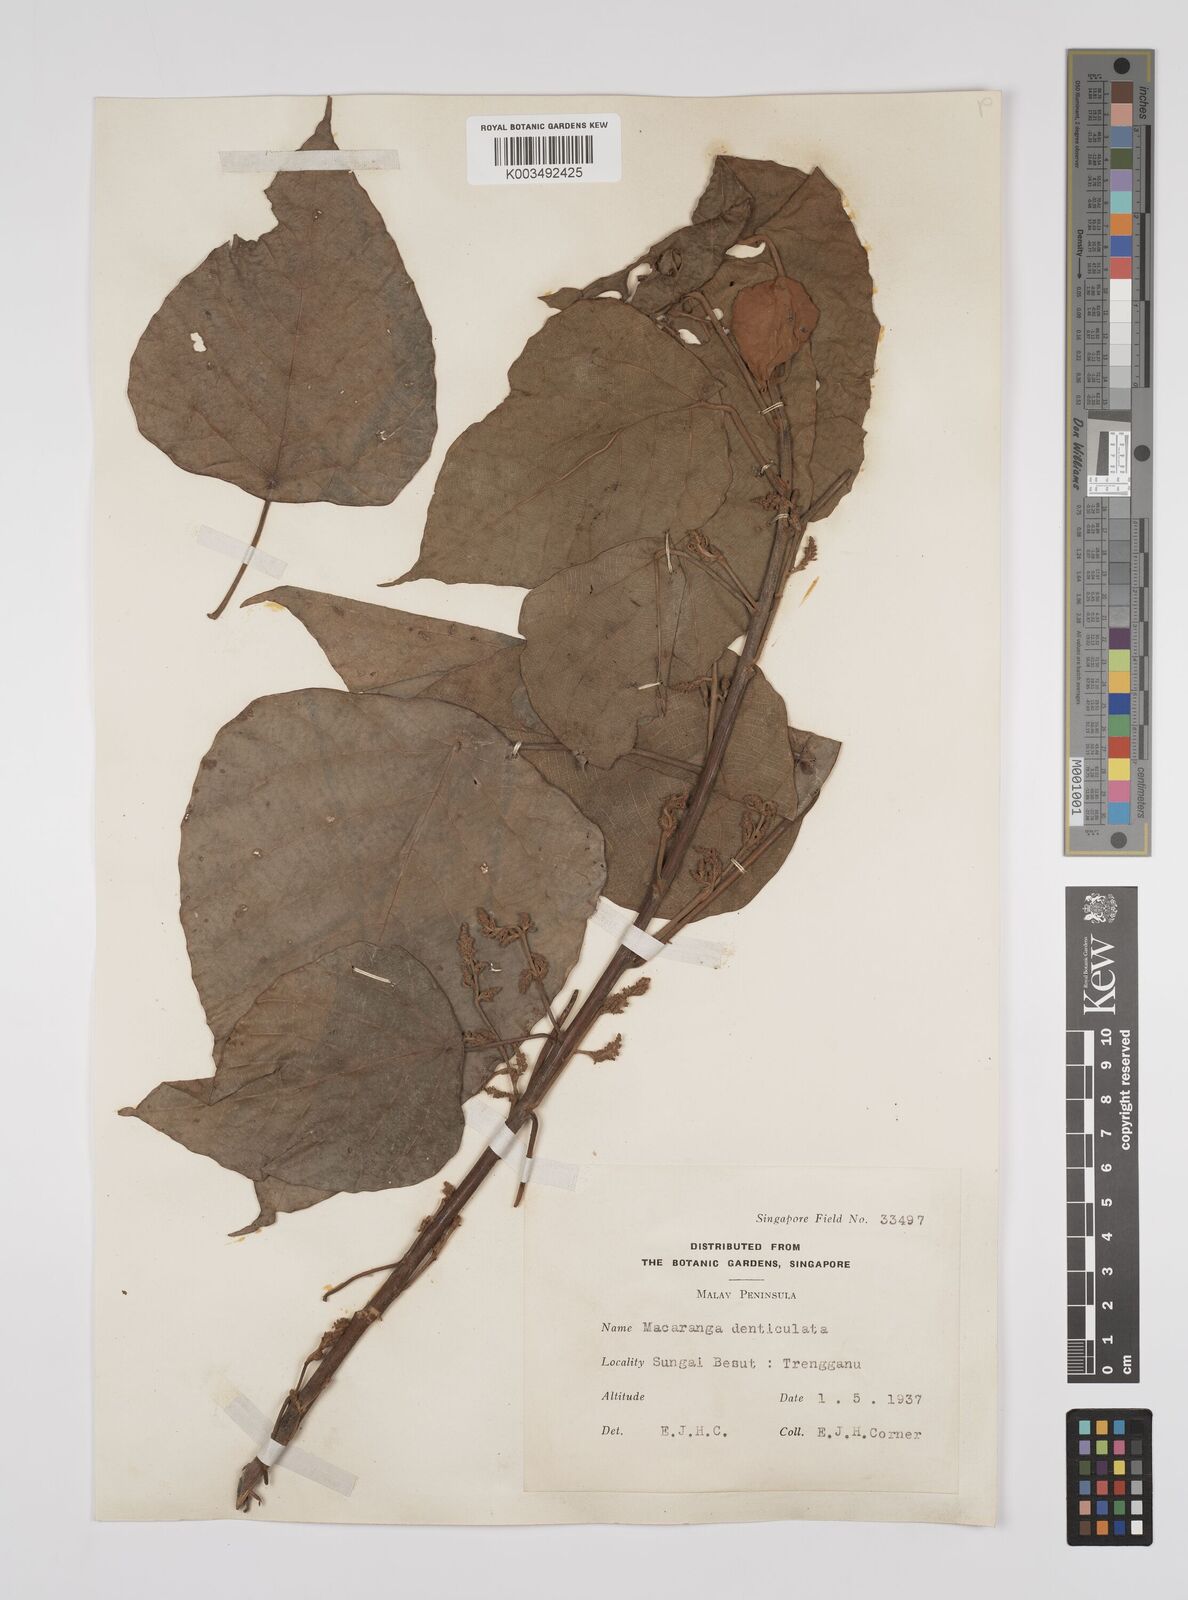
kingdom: Plantae
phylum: Tracheophyta
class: Magnoliopsida
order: Malpighiales
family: Euphorbiaceae
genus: Macaranga
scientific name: Macaranga denticulata
